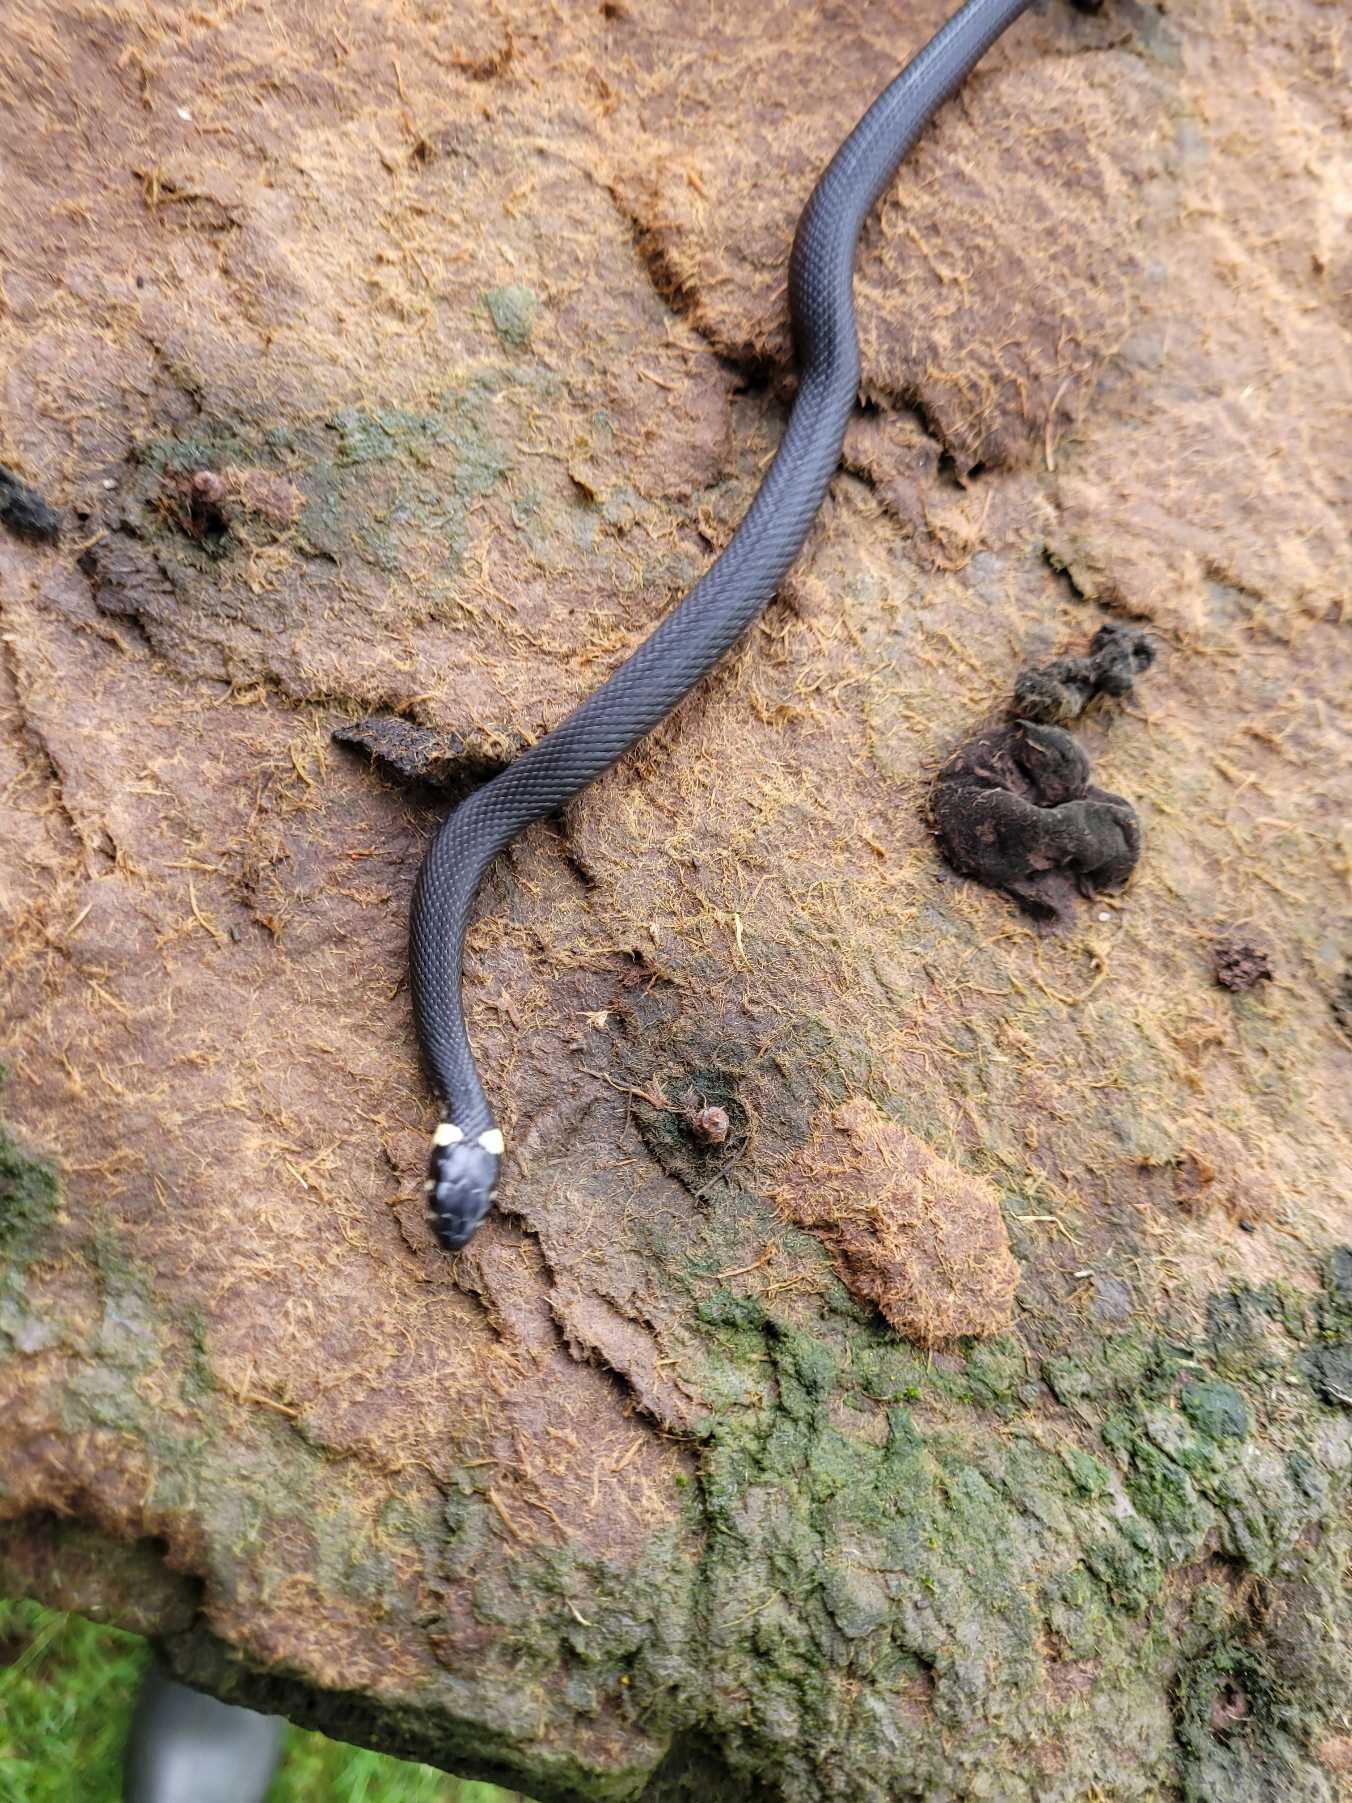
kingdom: Animalia
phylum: Chordata
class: Squamata
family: Colubridae
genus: Natrix
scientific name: Natrix natrix
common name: Snog
